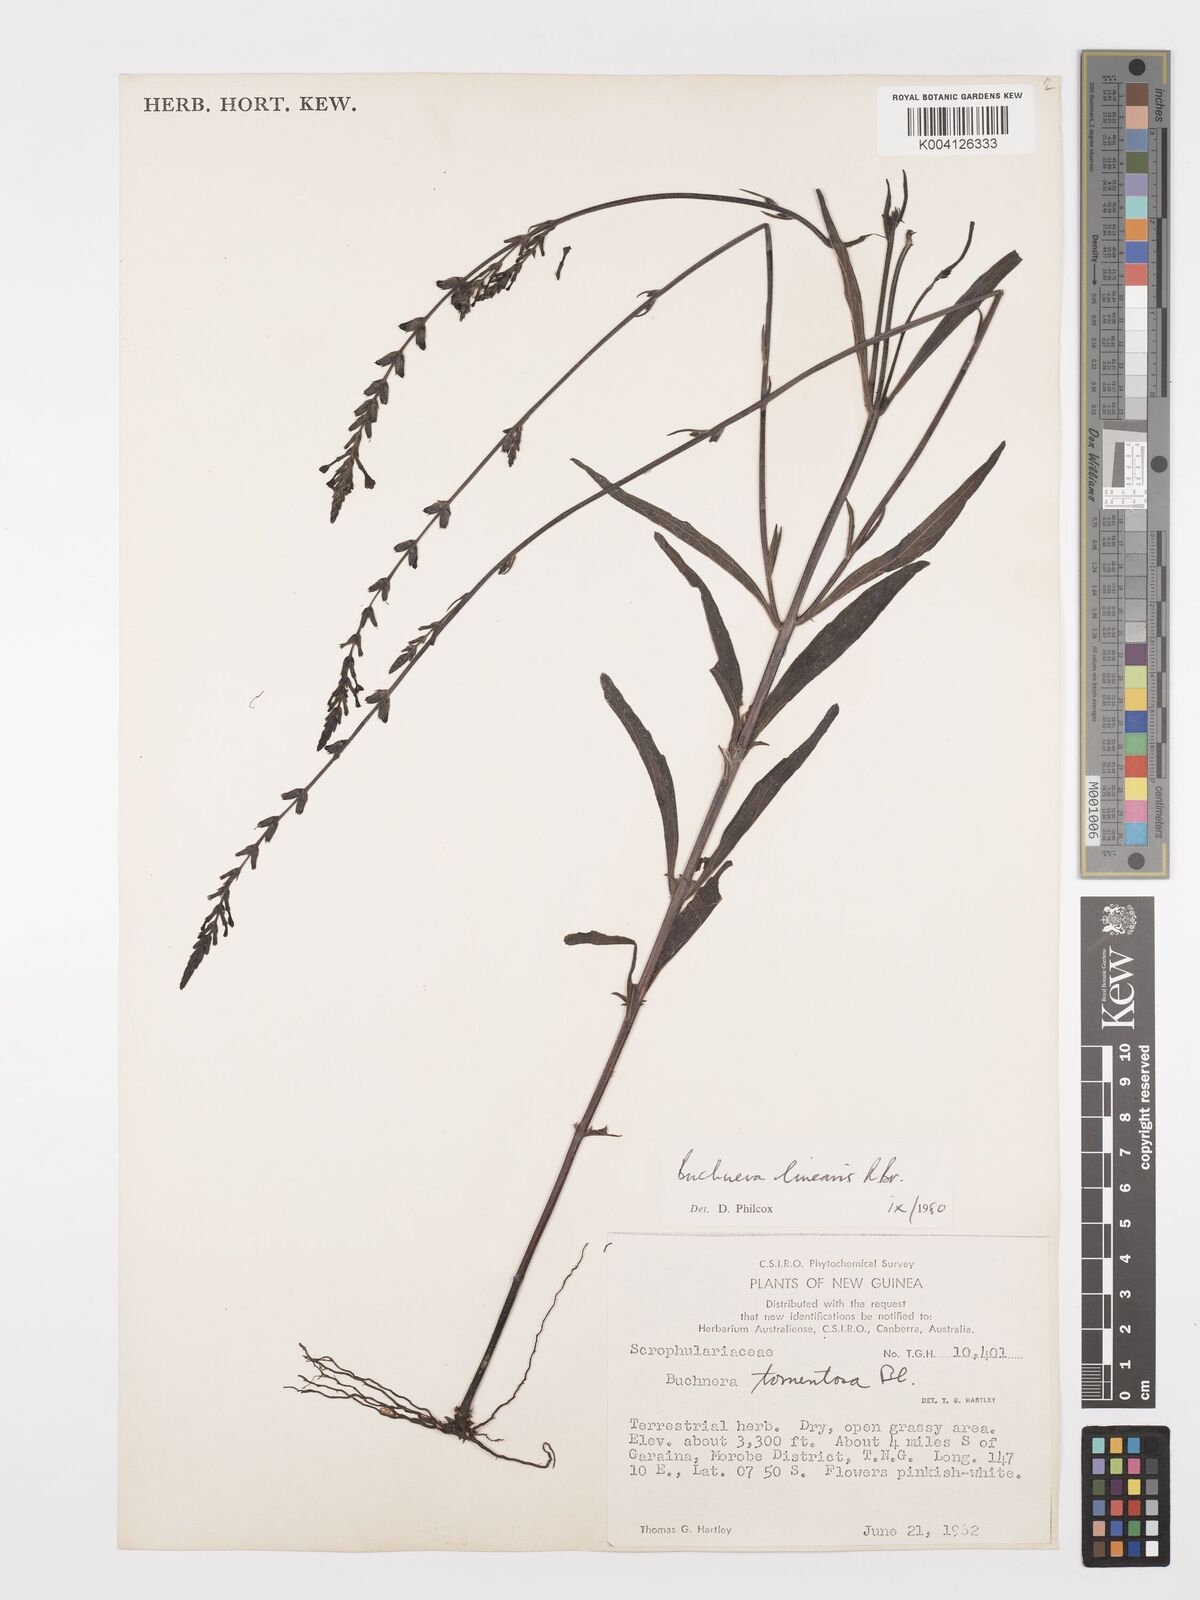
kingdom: Plantae
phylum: Tracheophyta
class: Magnoliopsida
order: Lamiales
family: Orobanchaceae
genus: Buchnera
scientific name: Buchnera linearis
